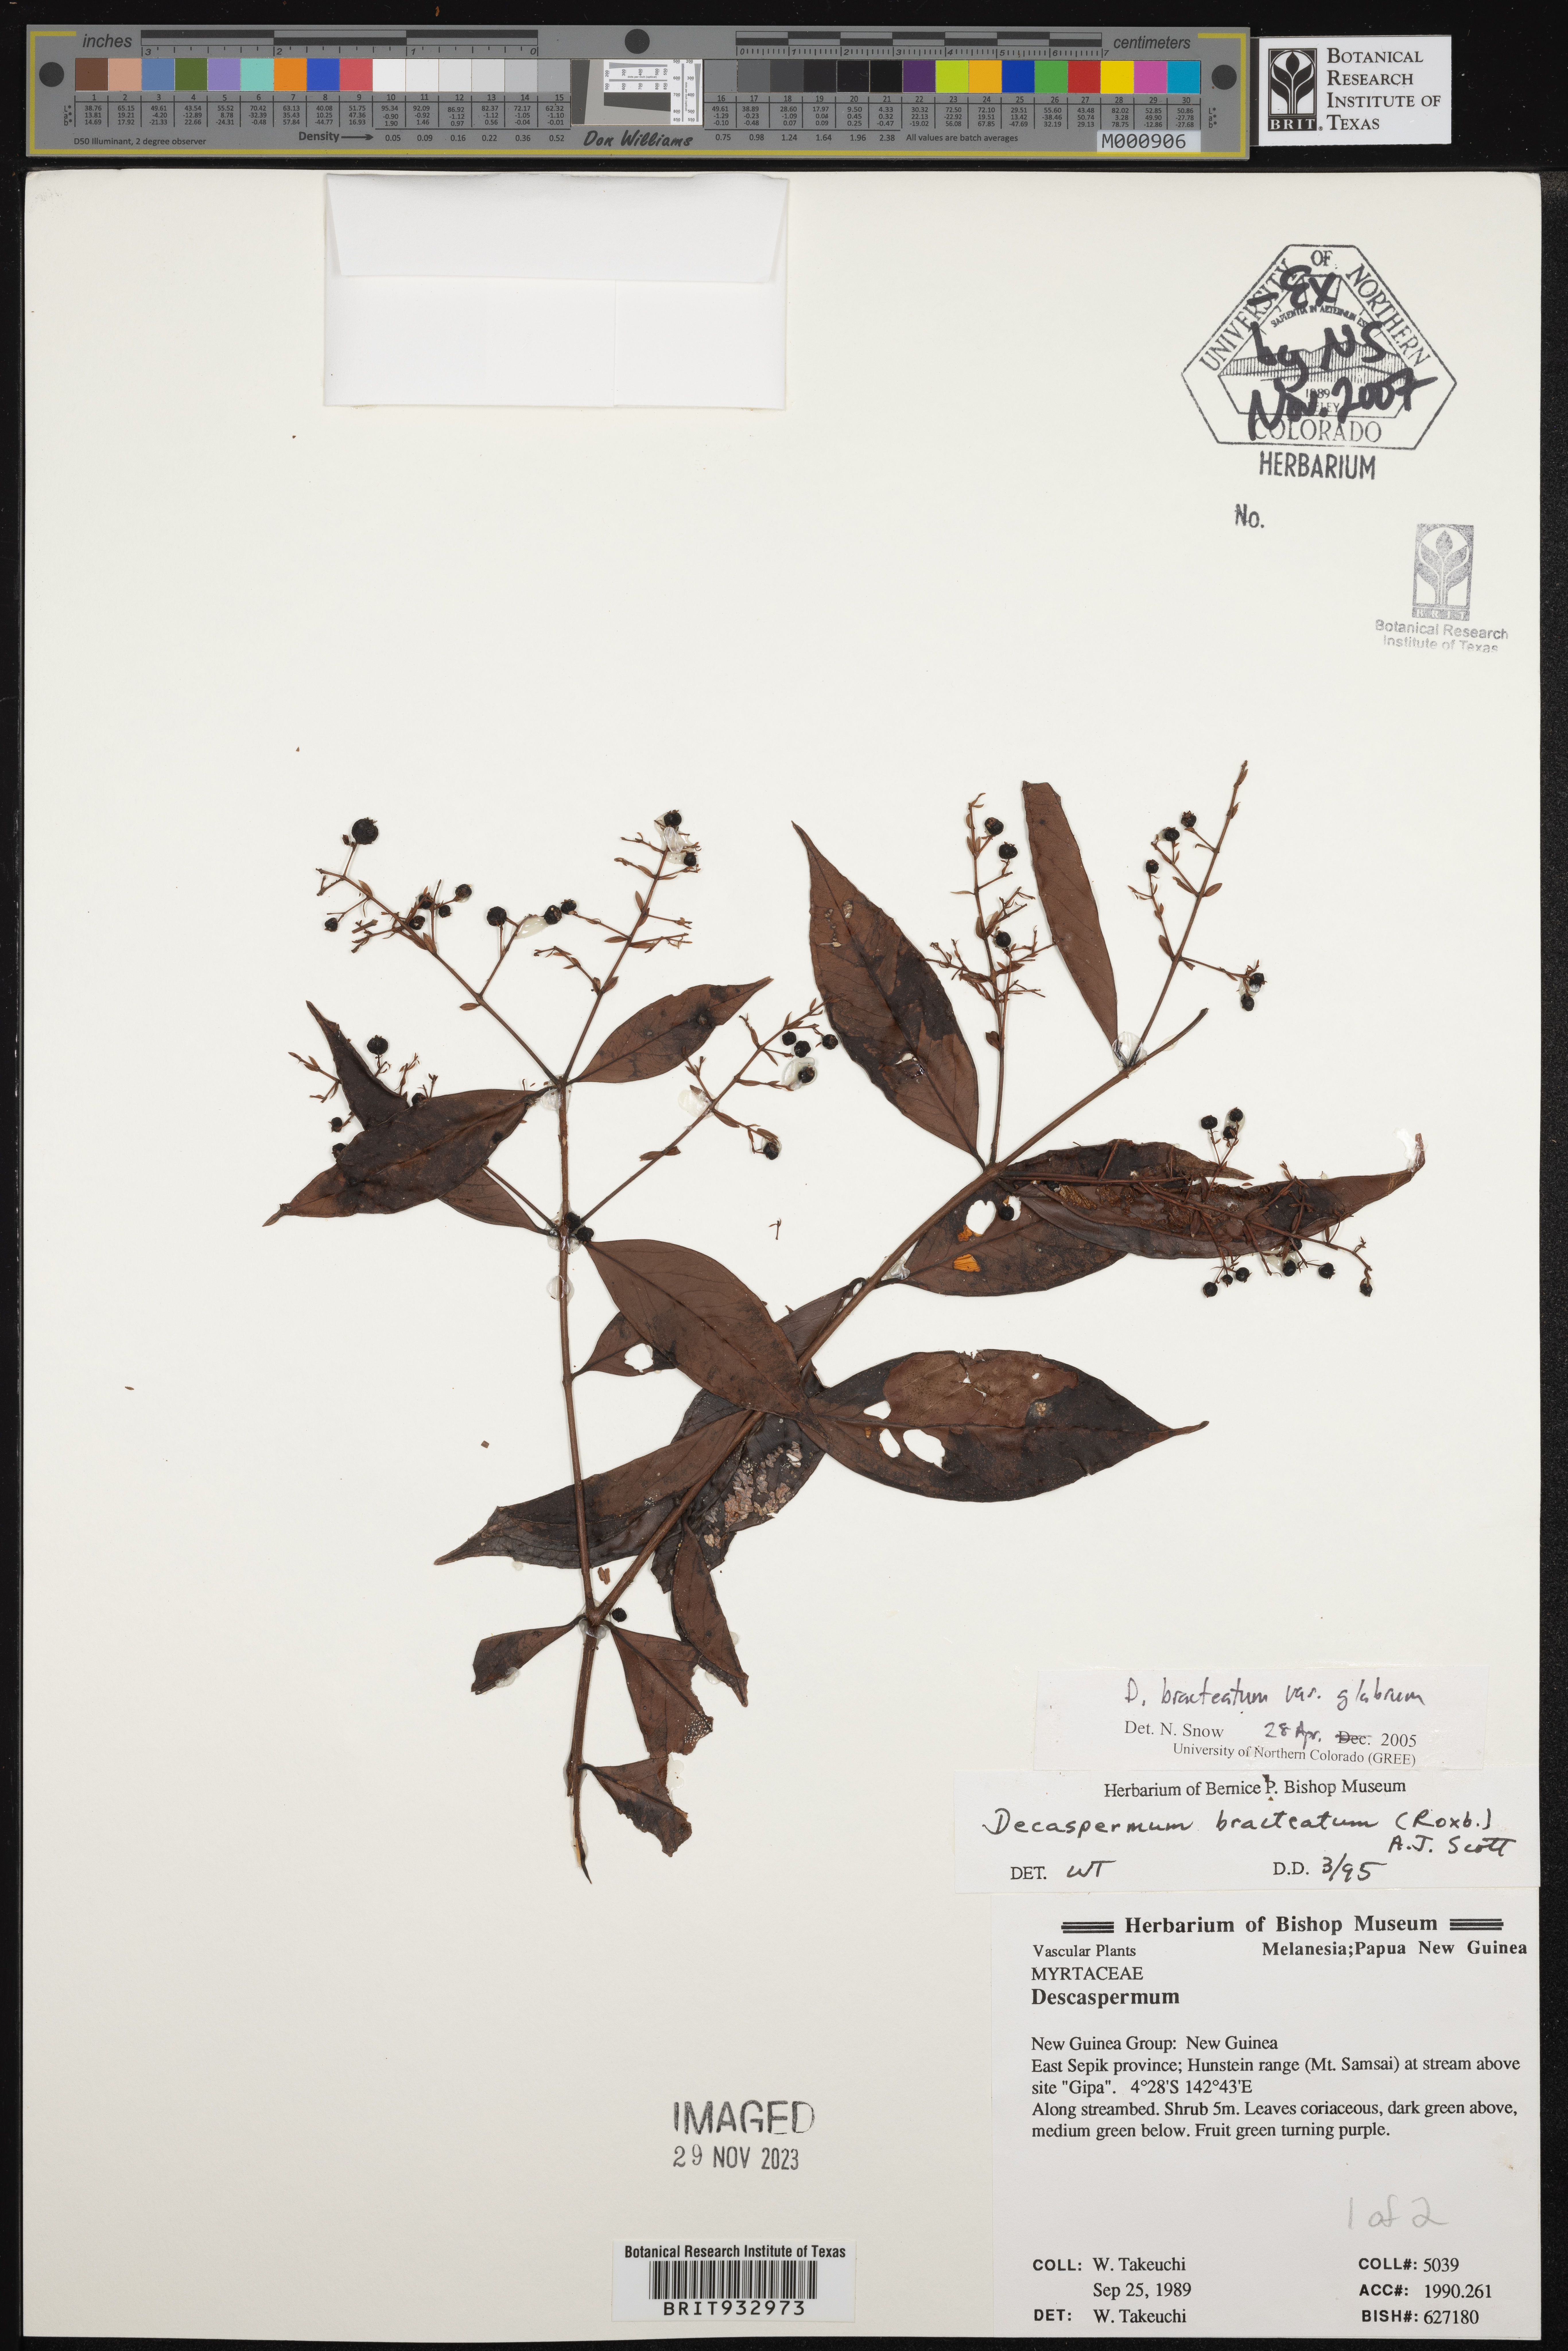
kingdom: Plantae
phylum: Tracheophyta
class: Magnoliopsida
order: Myrtales
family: Myrtaceae
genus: Decaspermum
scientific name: Decaspermum
